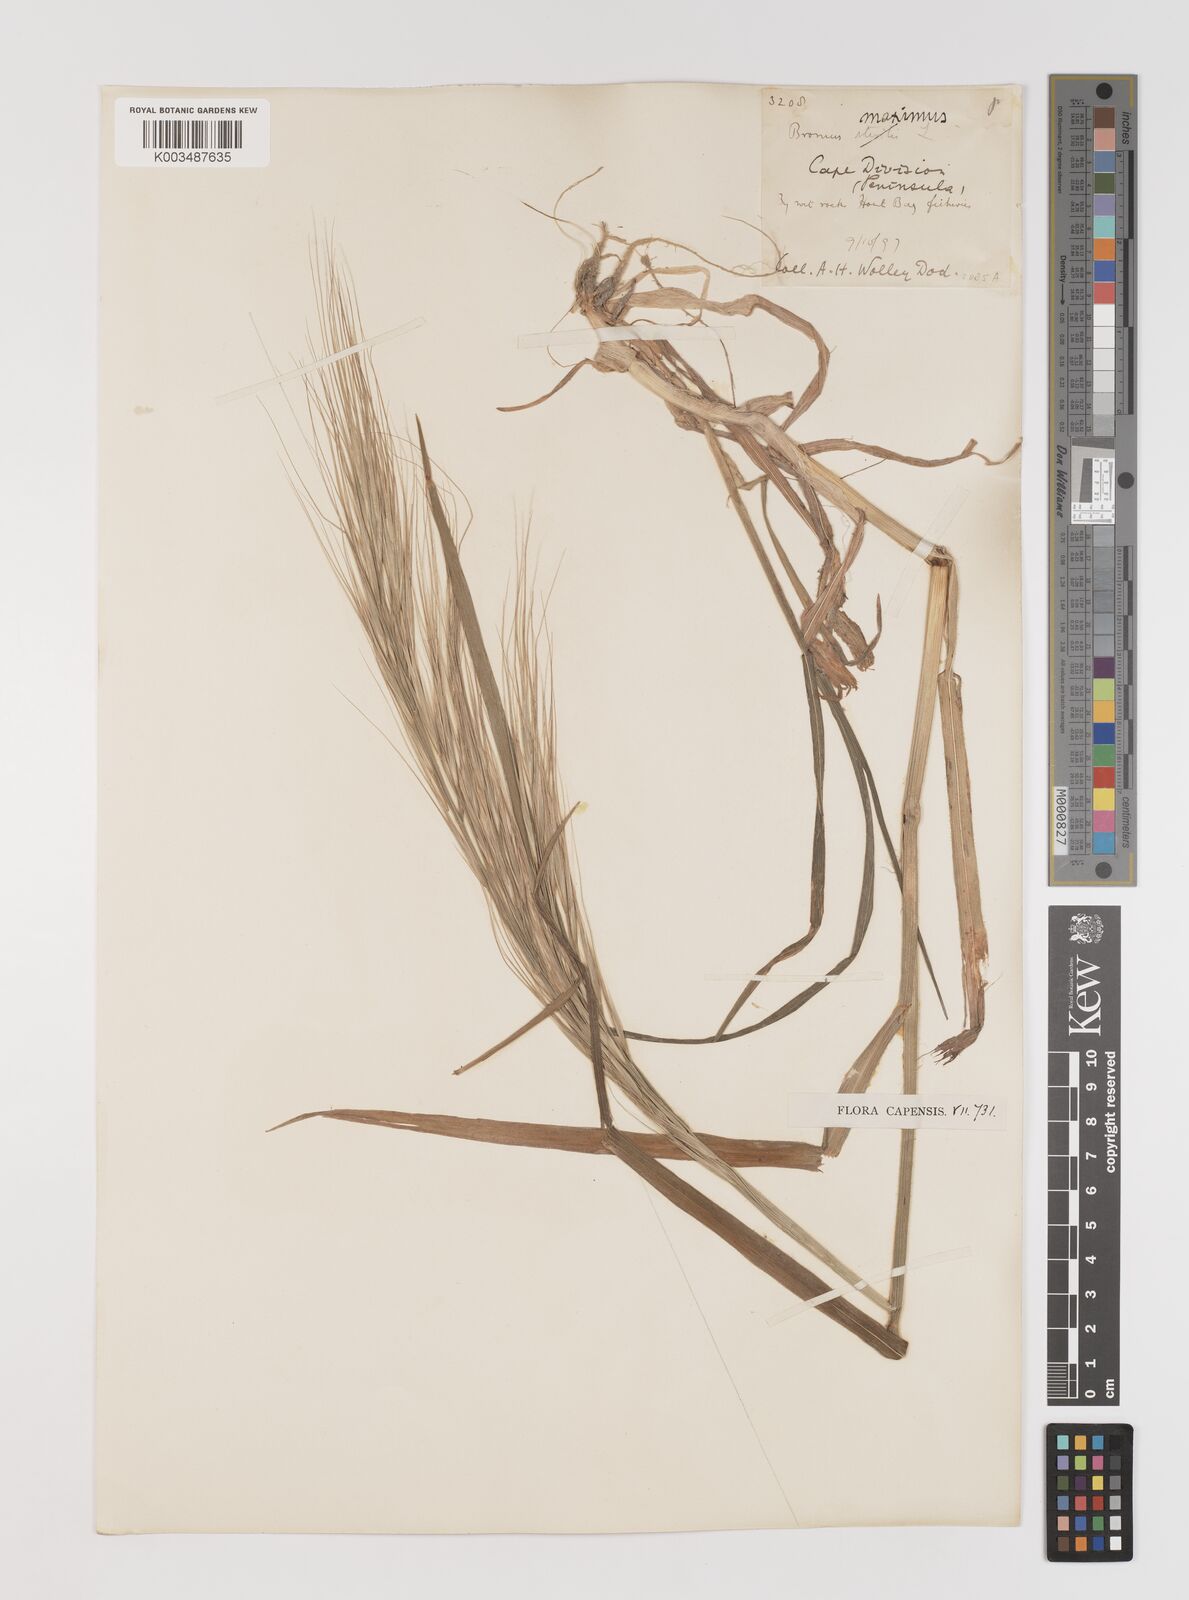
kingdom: Plantae
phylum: Tracheophyta
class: Liliopsida
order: Poales
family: Poaceae
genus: Bromus
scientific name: Bromus diandrus
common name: Ripgut brome
